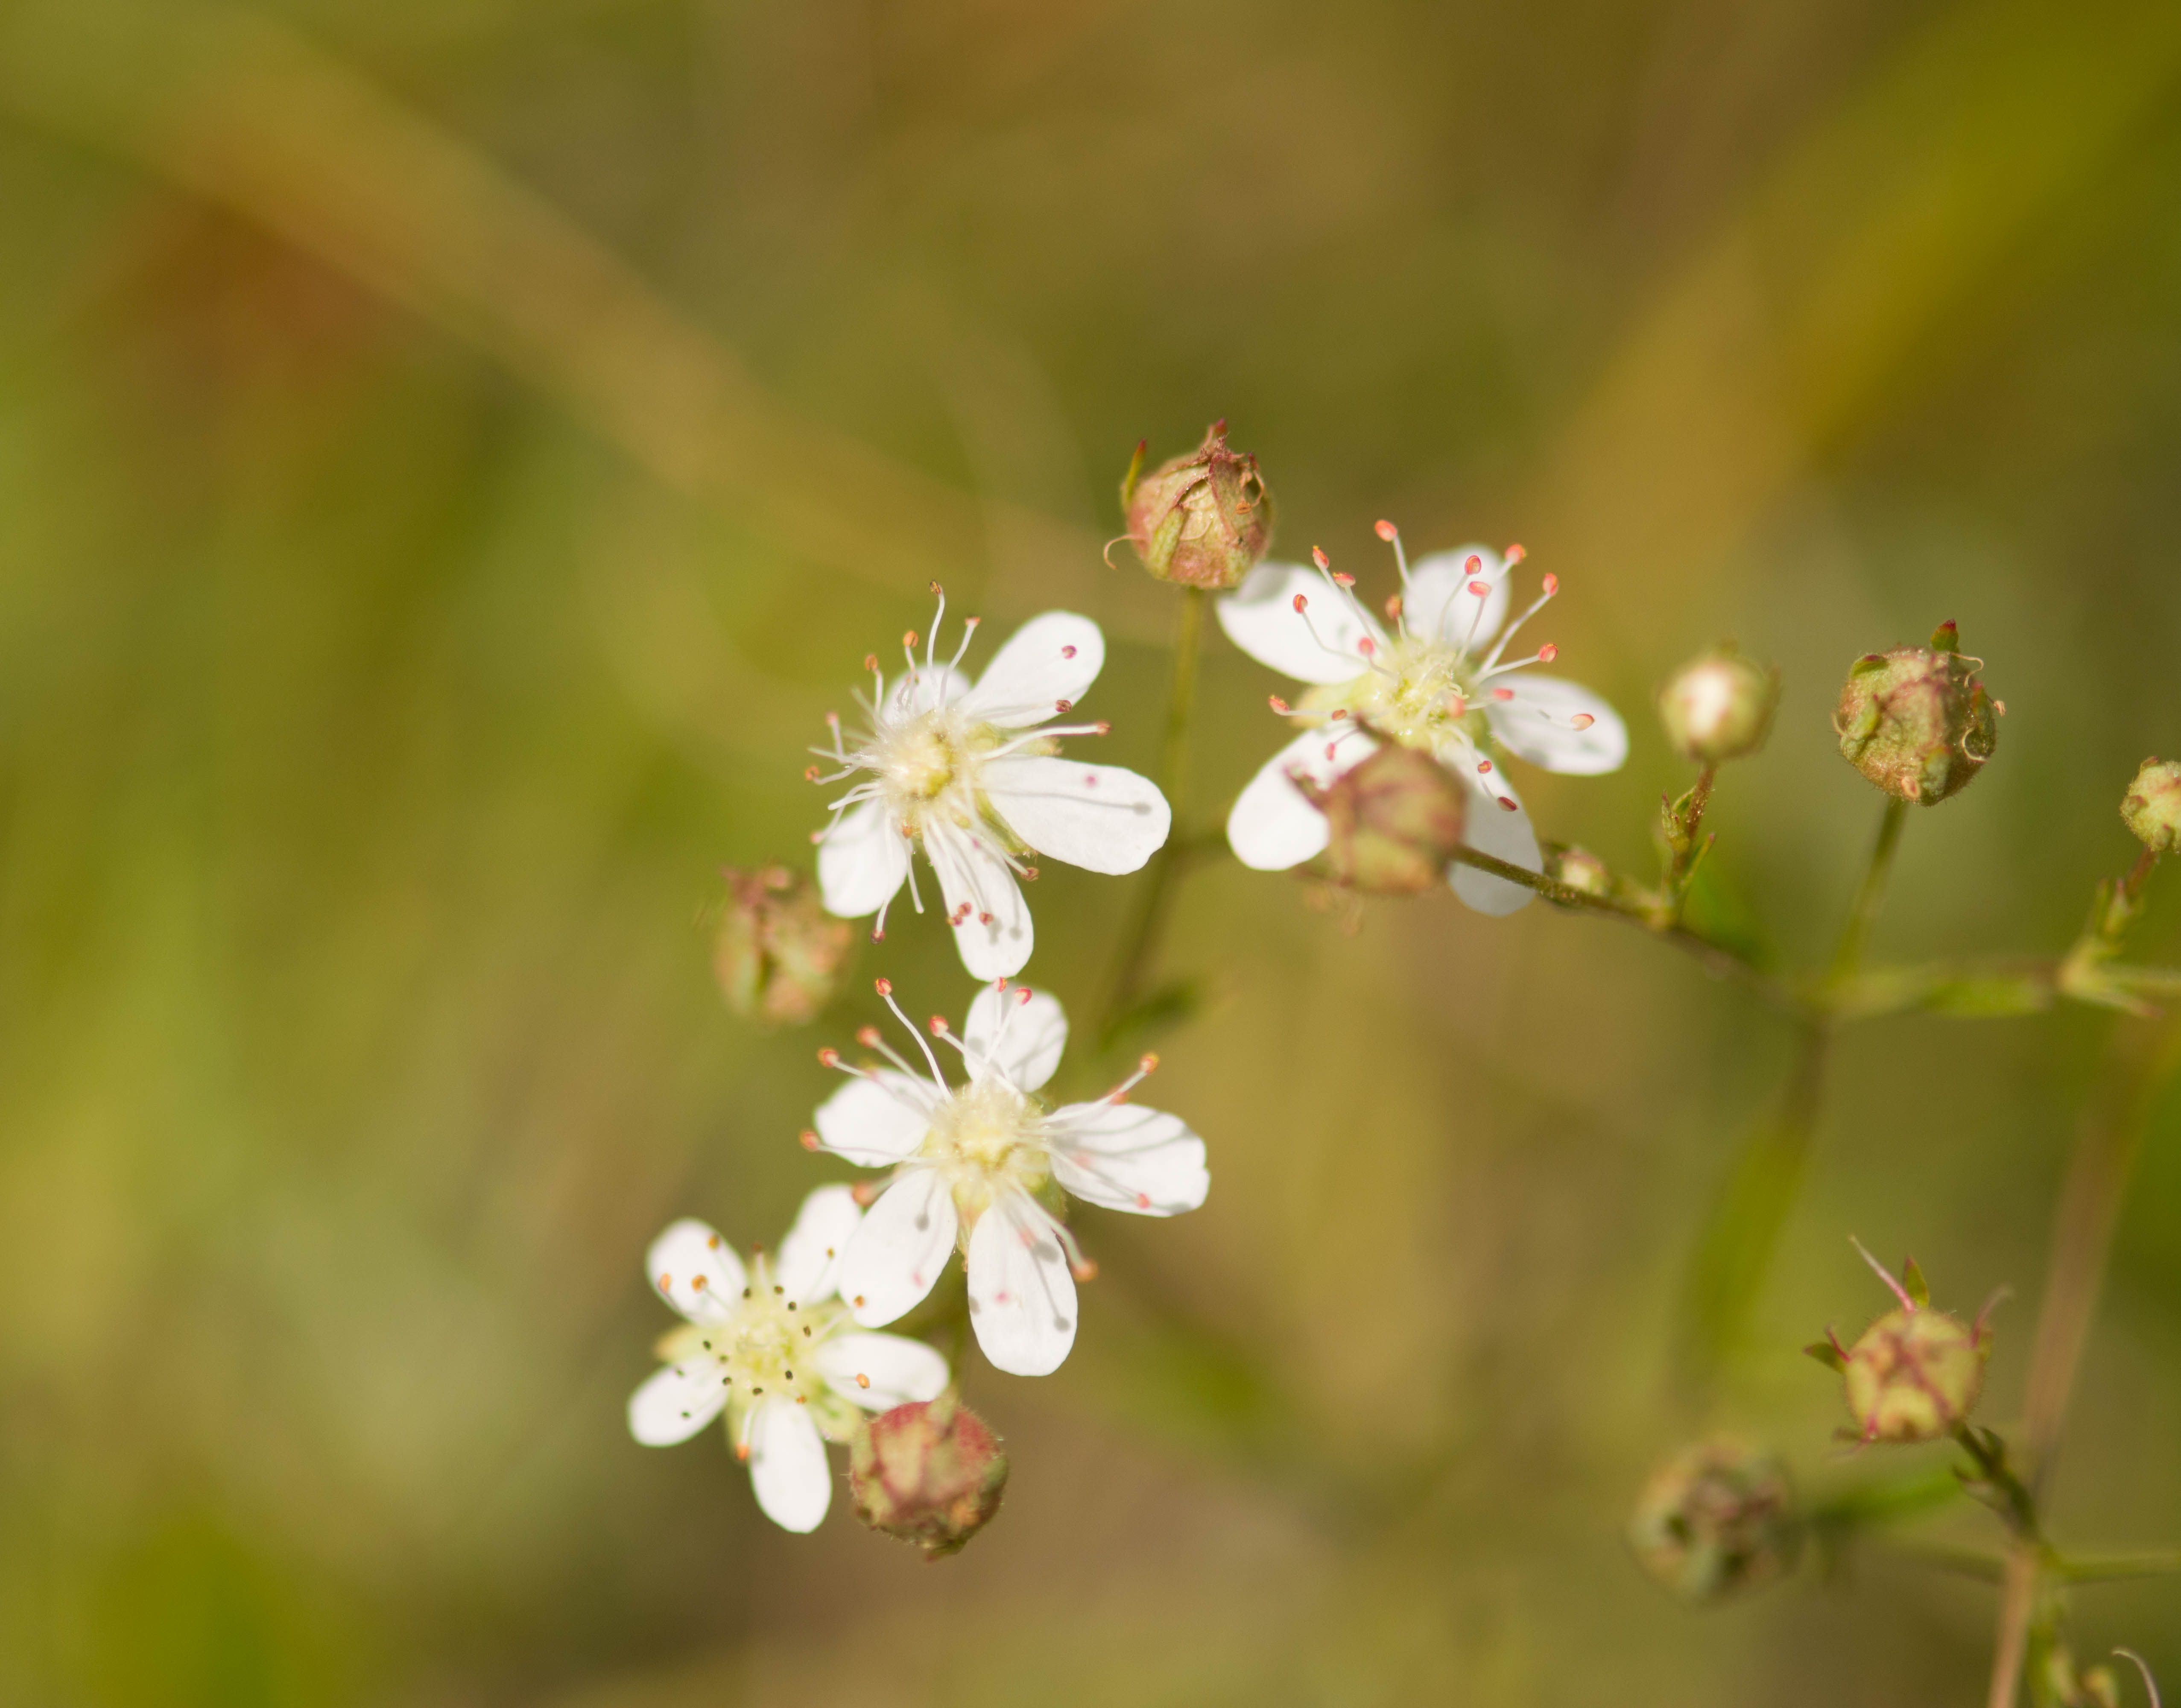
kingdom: Plantae
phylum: Tracheophyta
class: Magnoliopsida
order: Rosales
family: Rosaceae
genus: Sibbaldia
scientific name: Sibbaldia tridentata
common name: Three-toothed cinquefoil
